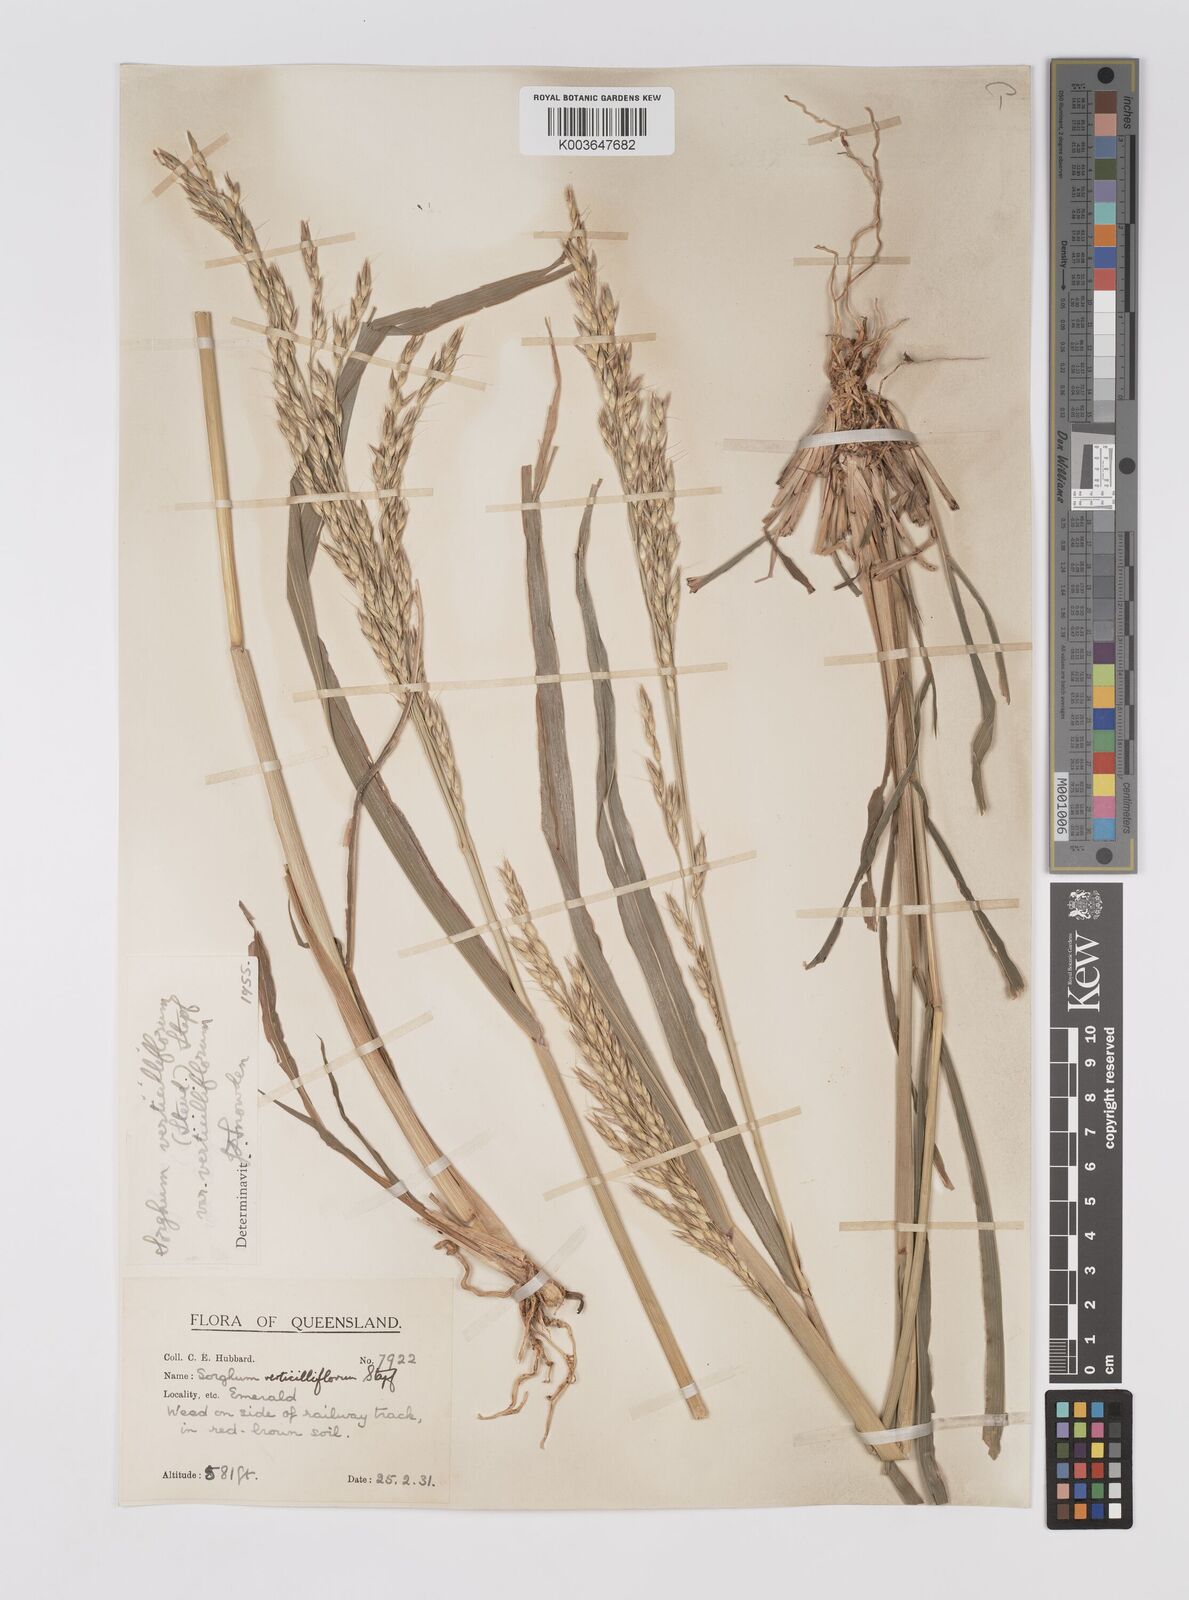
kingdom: Plantae
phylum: Tracheophyta
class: Liliopsida
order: Poales
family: Poaceae
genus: Sorghum
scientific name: Sorghum arundinaceum
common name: Sorghum
